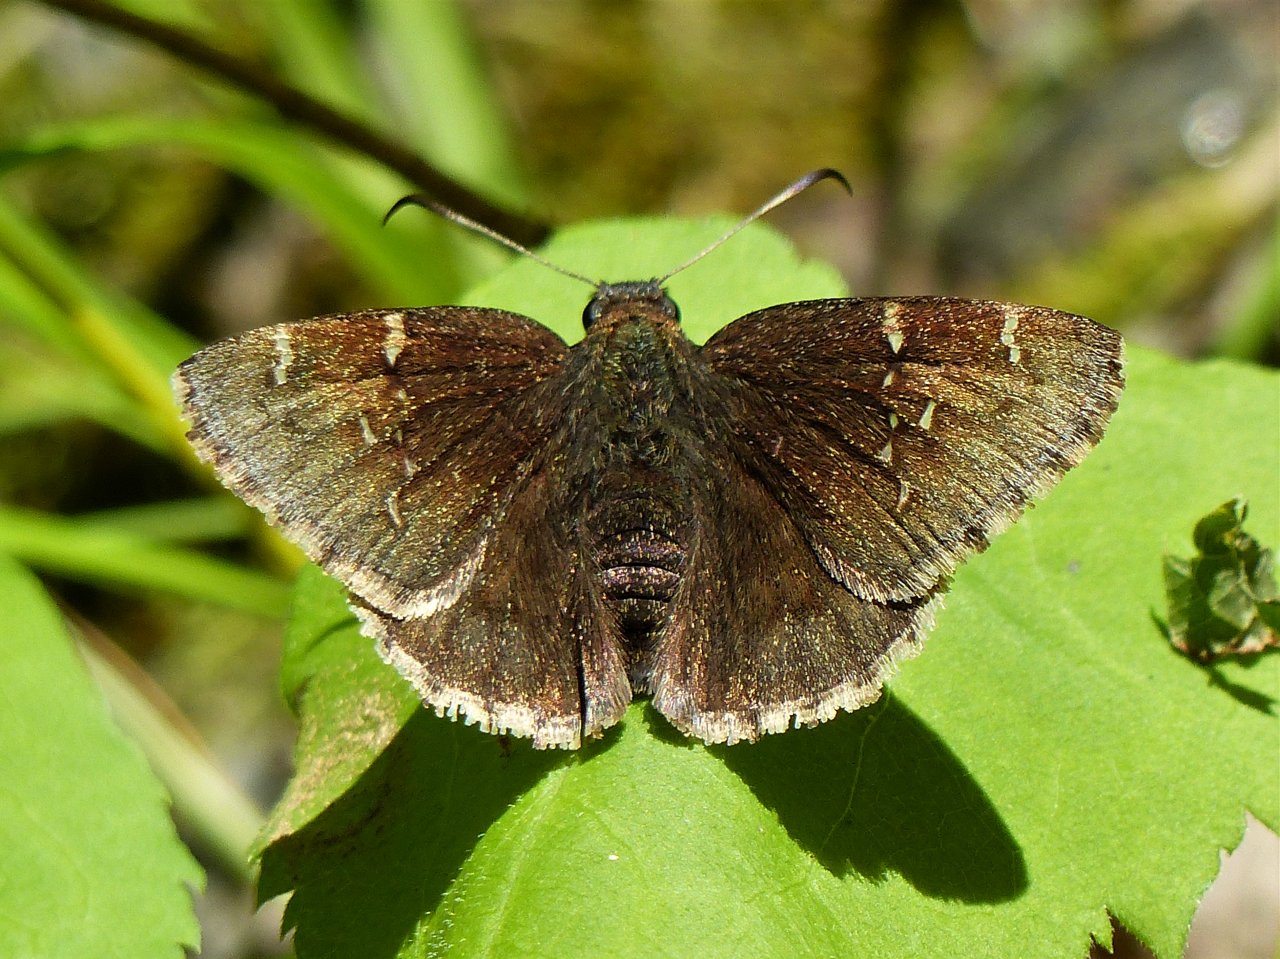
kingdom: Animalia
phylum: Arthropoda
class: Insecta
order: Lepidoptera
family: Hesperiidae
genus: Autochton
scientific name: Autochton
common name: Northern Cloudywing
